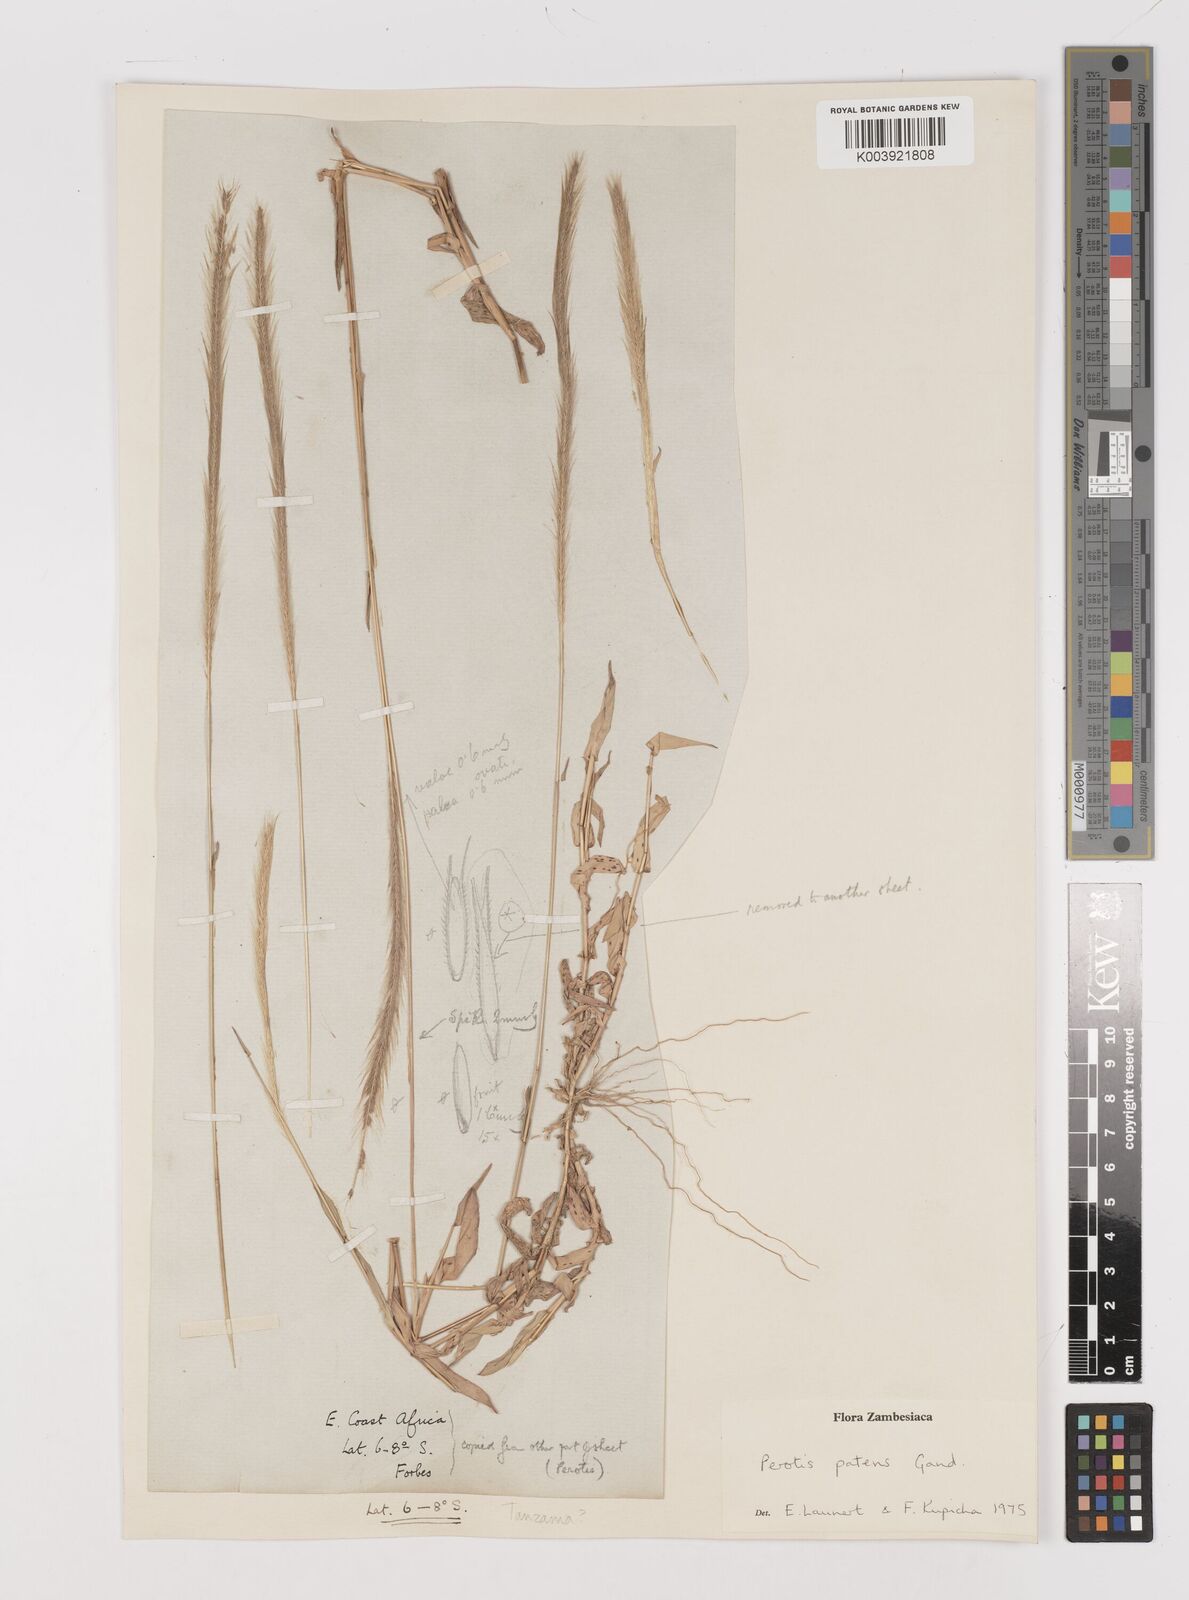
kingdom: Plantae
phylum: Tracheophyta
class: Liliopsida
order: Poales
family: Poaceae
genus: Perotis
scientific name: Perotis patens
